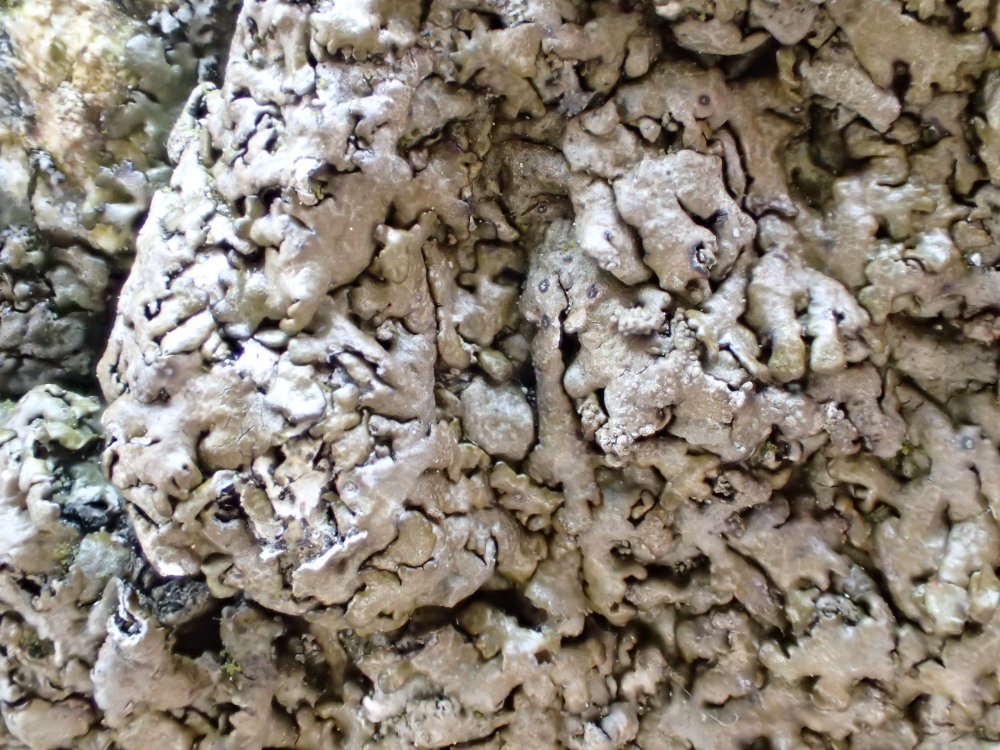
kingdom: Fungi
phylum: Ascomycota
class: Lecanoromycetes
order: Lecanorales
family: Parmeliaceae
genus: Xanthoparmelia
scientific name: Xanthoparmelia pulla
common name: mørkebrun skållav
